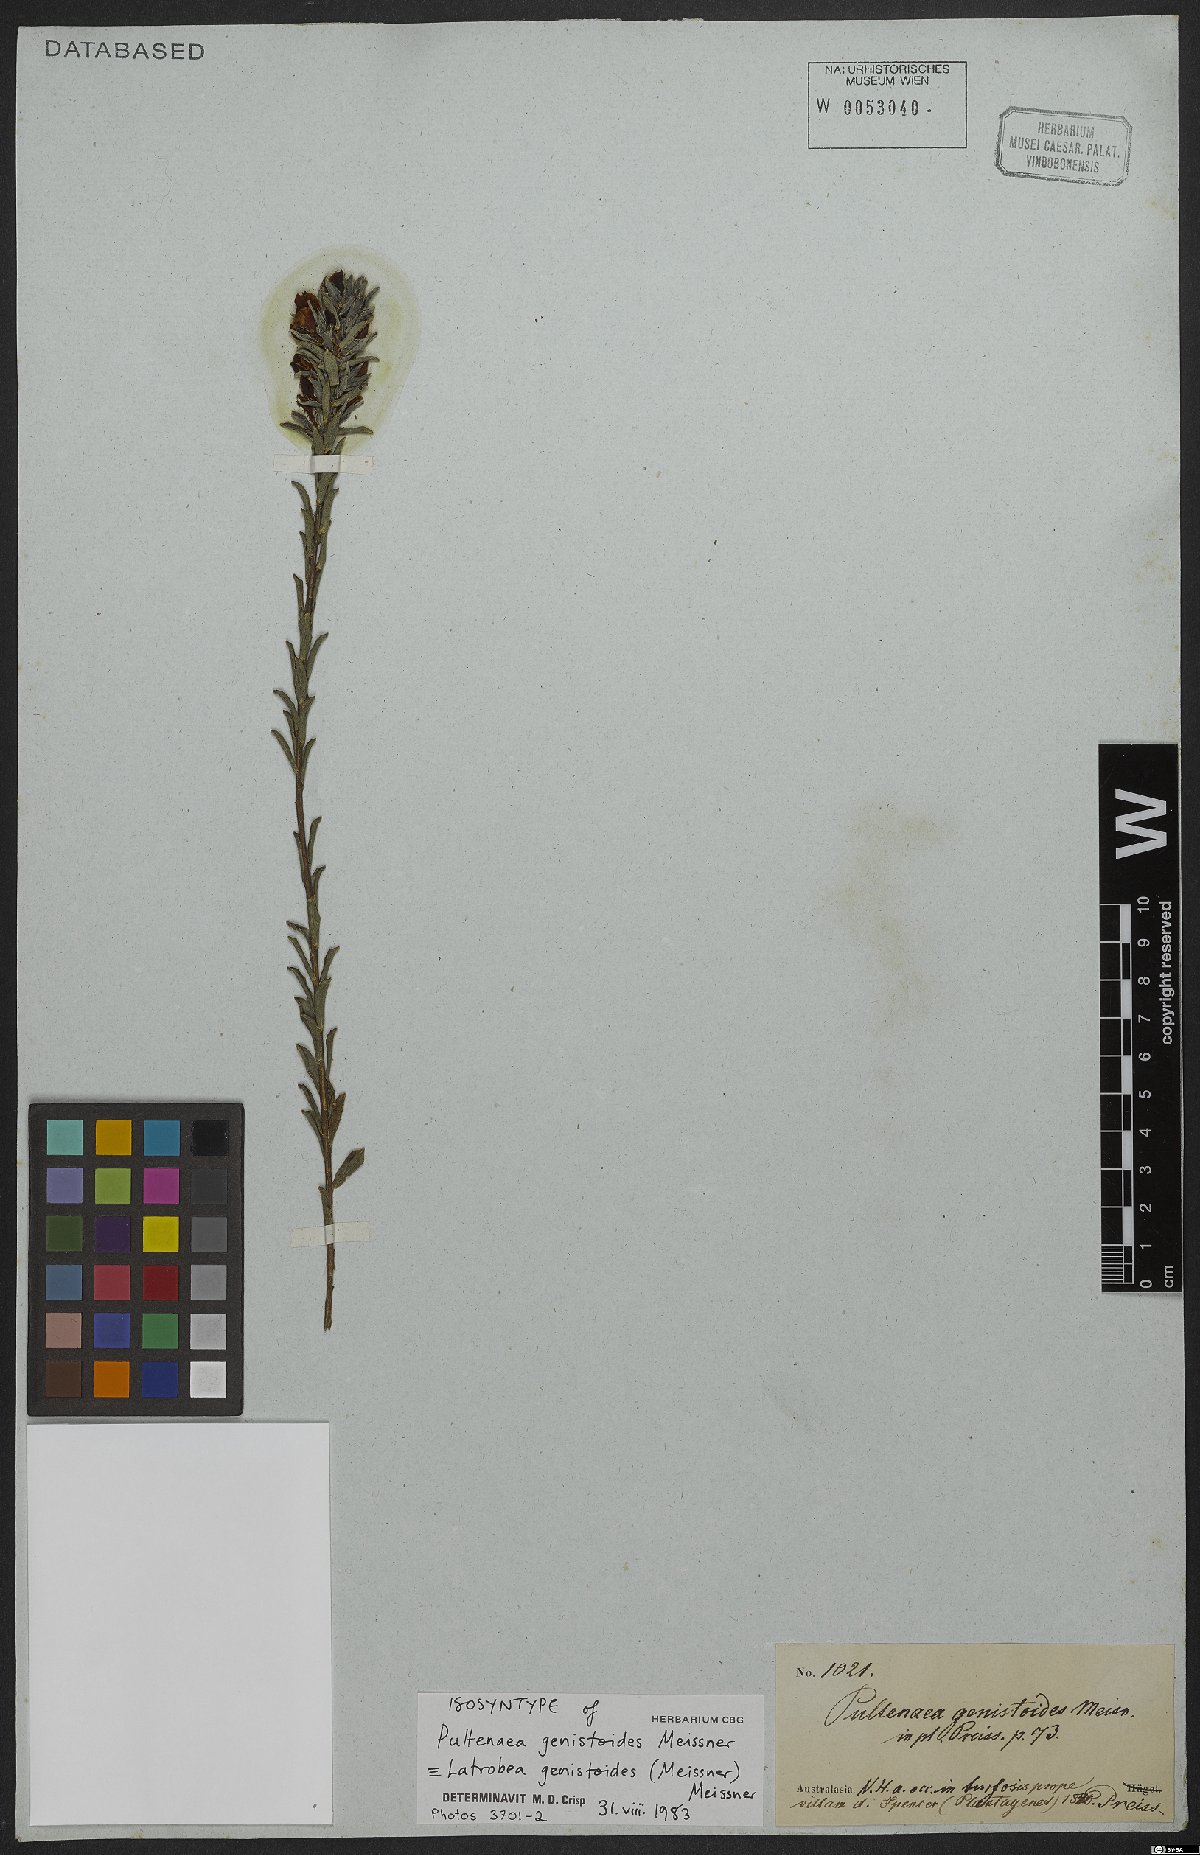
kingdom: Plantae
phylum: Tracheophyta
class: Magnoliopsida
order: Fabales
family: Fabaceae
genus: Latrobea
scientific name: Latrobea genistoides
